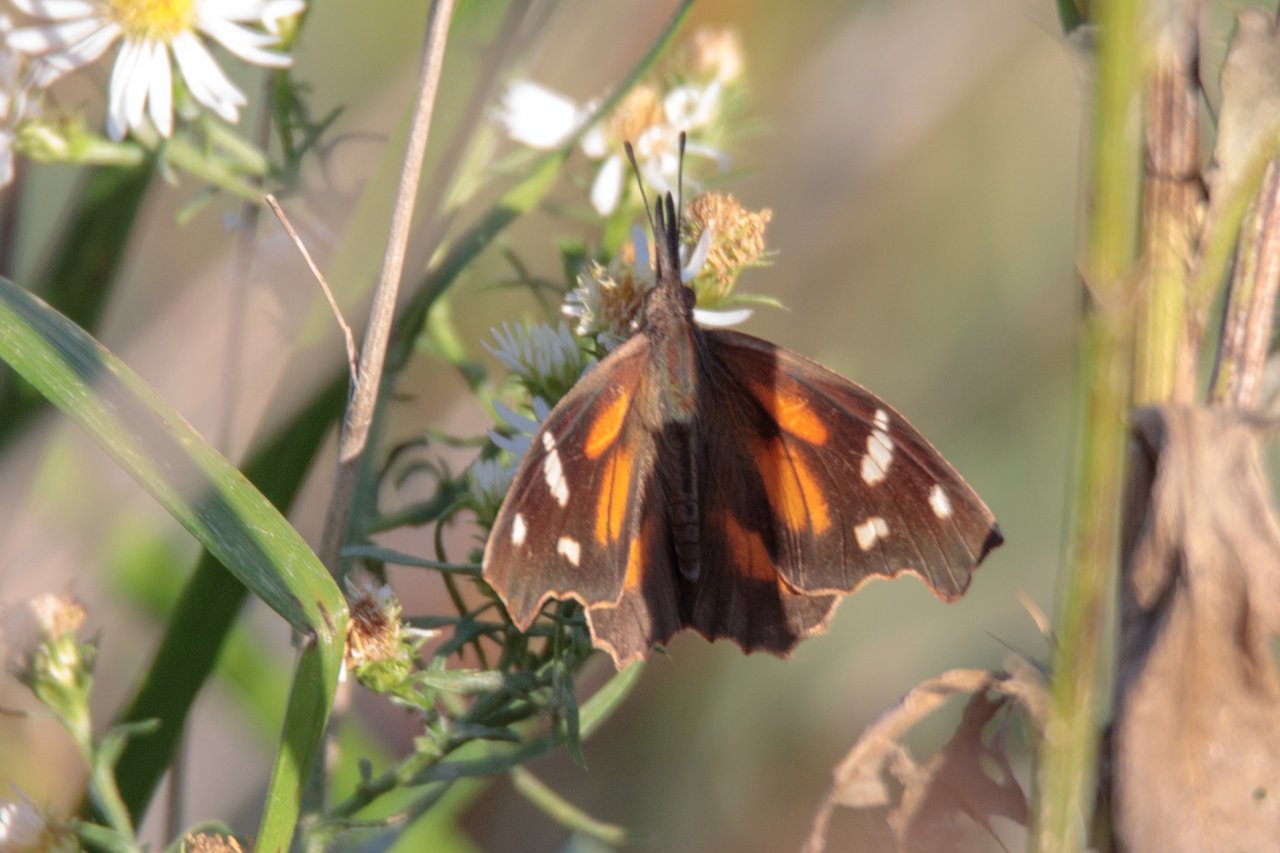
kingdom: Animalia
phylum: Arthropoda
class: Insecta
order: Lepidoptera
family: Nymphalidae
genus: Libytheana
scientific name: Libytheana carinenta
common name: American Snout
